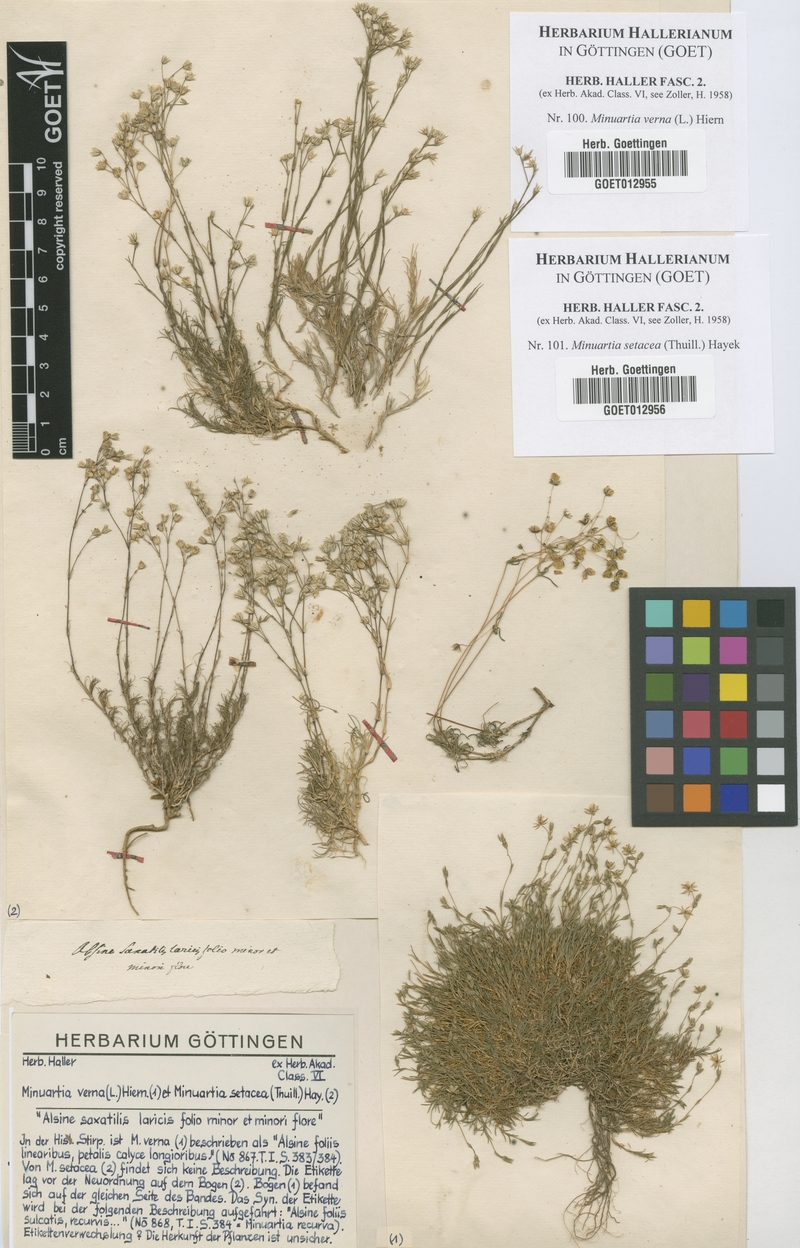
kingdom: Plantae
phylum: Tracheophyta
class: Magnoliopsida
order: Caryophyllales
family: Caryophyllaceae
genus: Sabulina
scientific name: Sabulina verna
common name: Spring sandwort
